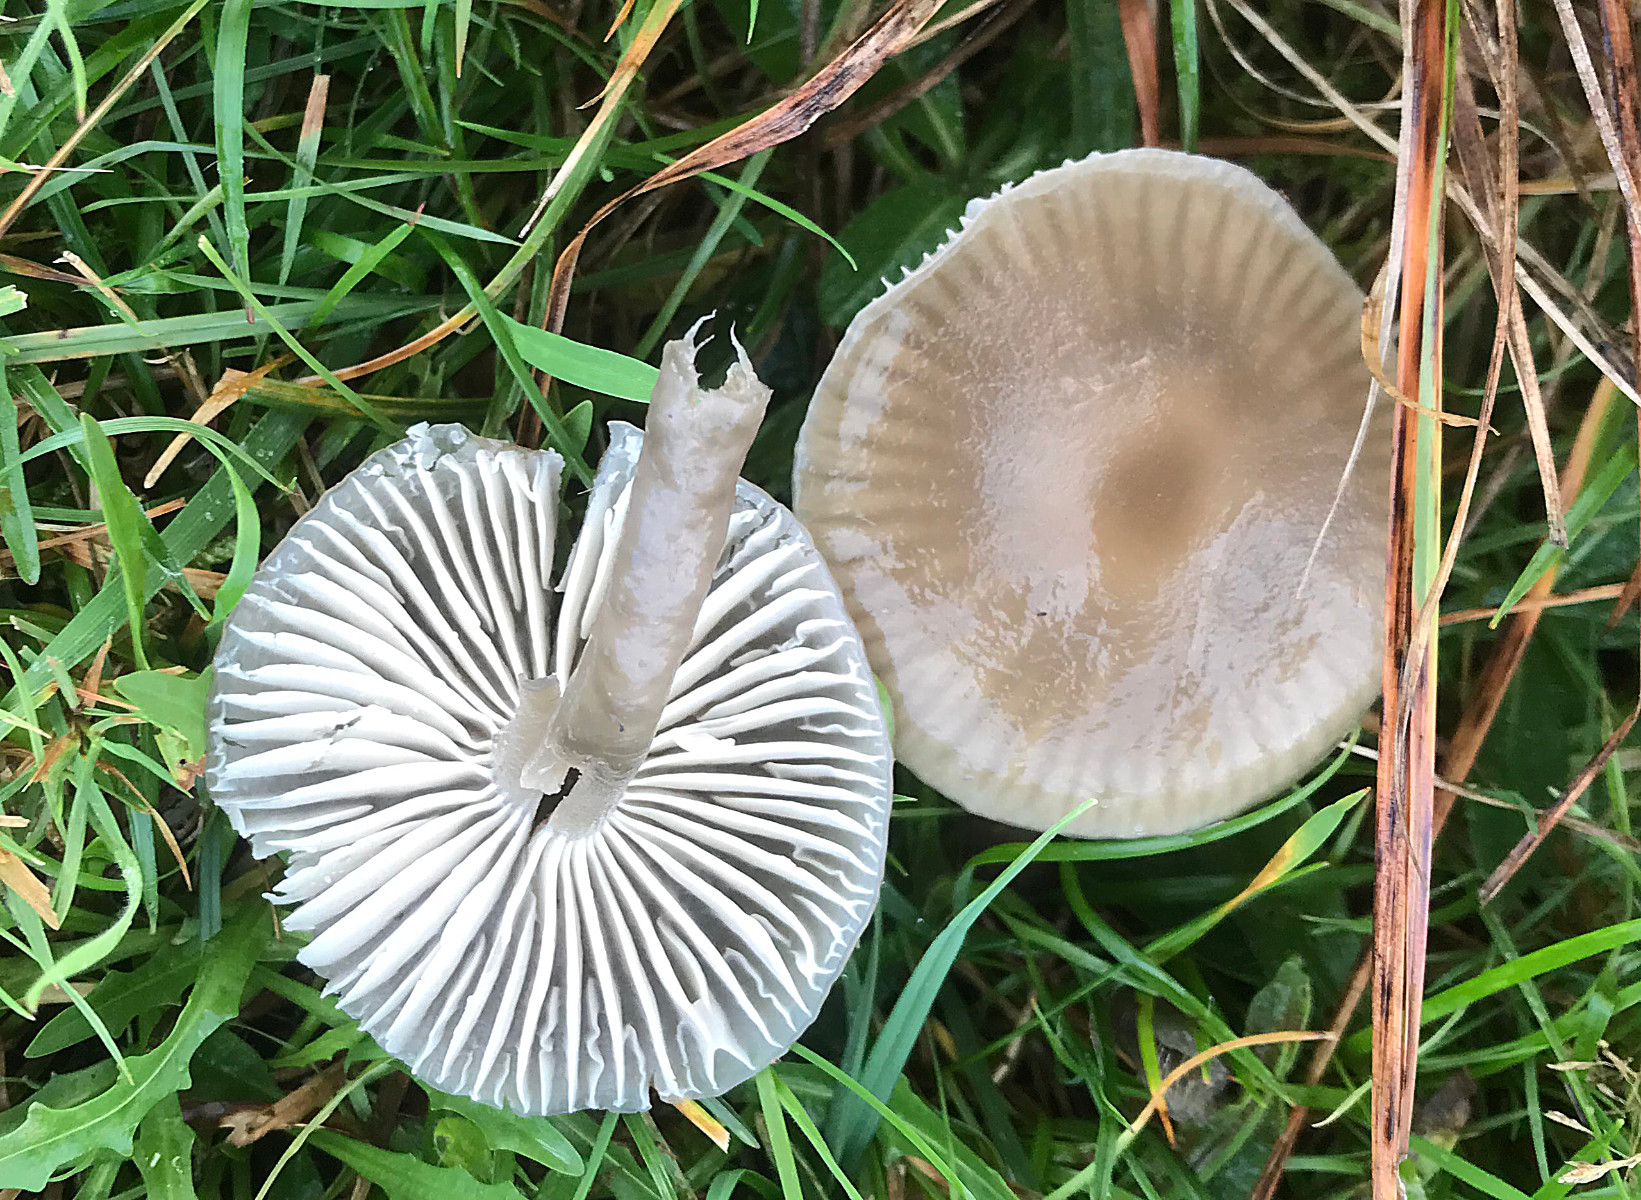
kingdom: Fungi
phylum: Basidiomycota
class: Agaricomycetes
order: Agaricales
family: Hygrophoraceae
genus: Gliophorus
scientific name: Gliophorus irrigatus
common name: slimet vokshat
